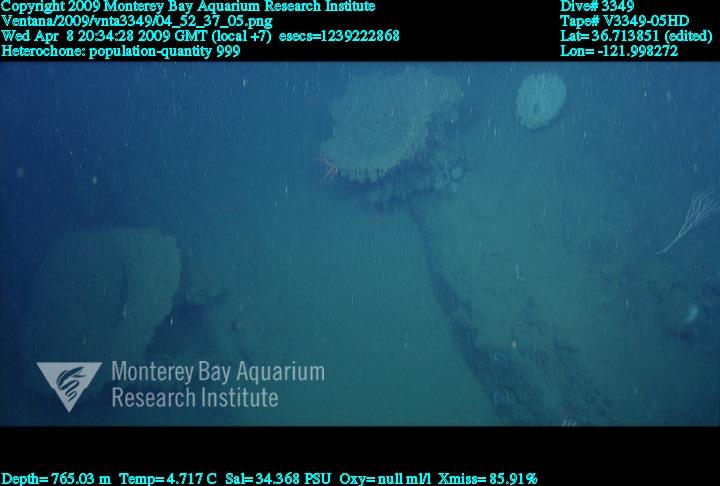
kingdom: Animalia
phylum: Porifera
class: Hexactinellida
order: Sceptrulophora
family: Aphrocallistidae
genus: Heterochone
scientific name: Heterochone
